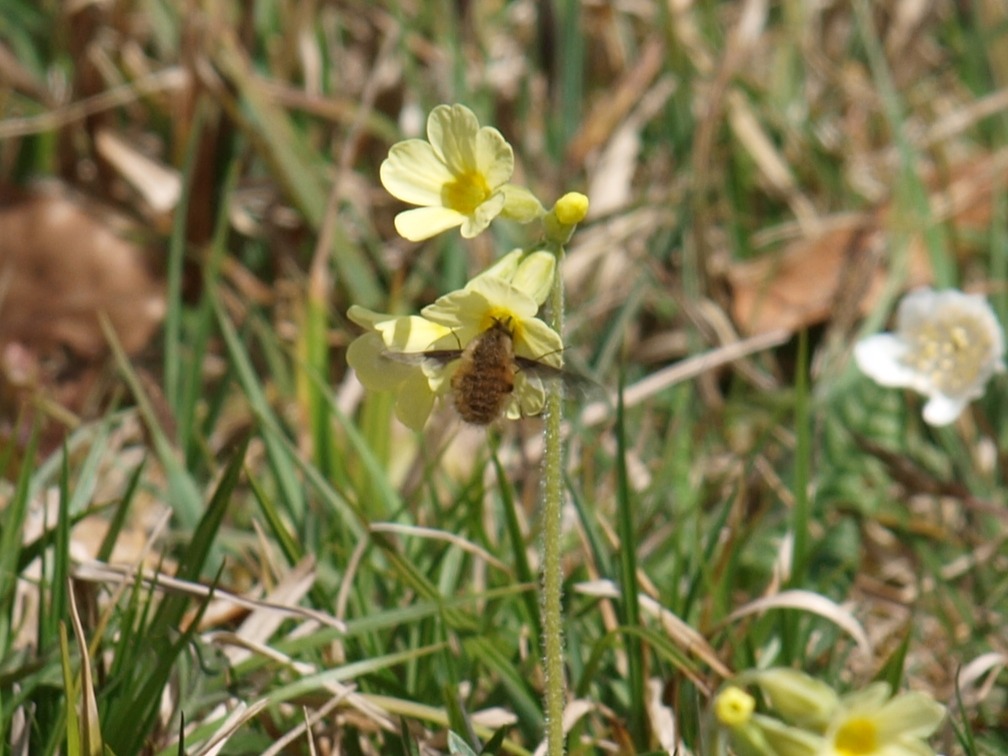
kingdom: Animalia
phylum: Arthropoda
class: Insecta
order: Diptera
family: Bombyliidae
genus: Bombylius
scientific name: Bombylius major
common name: Stor humleflue
